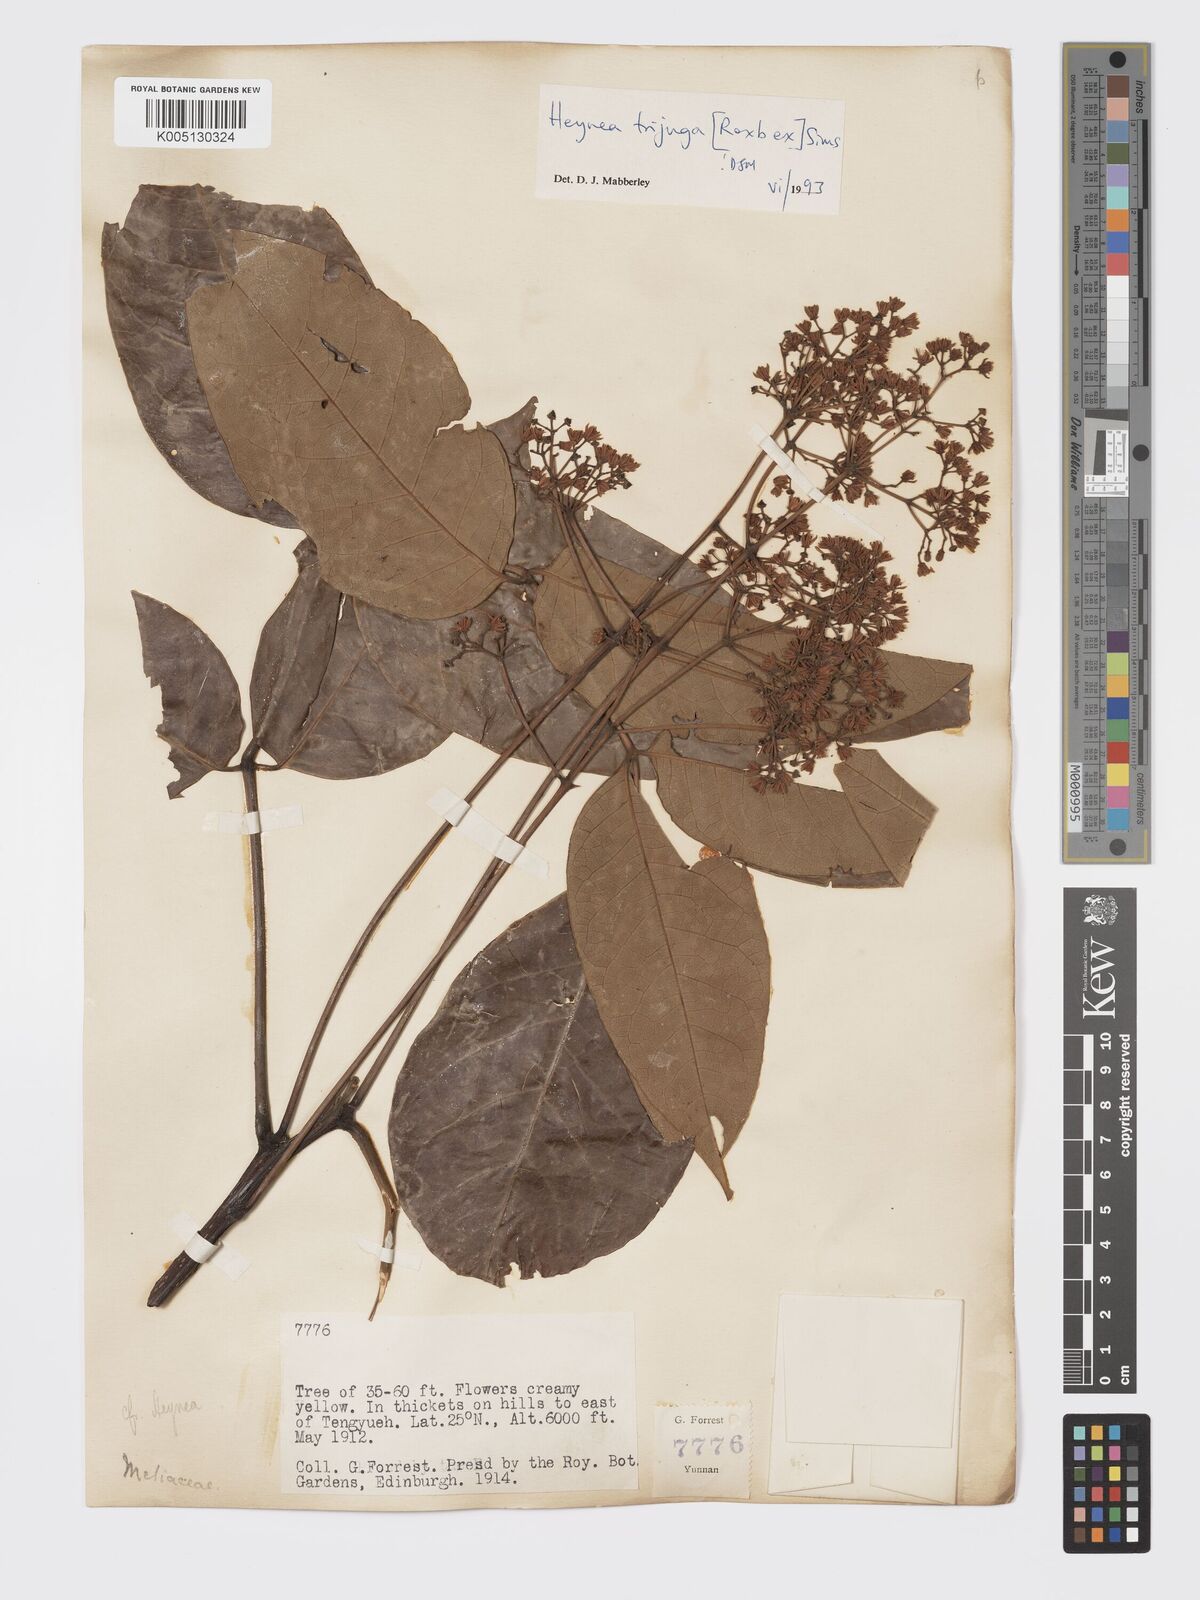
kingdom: Plantae
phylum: Tracheophyta
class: Magnoliopsida
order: Sapindales
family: Meliaceae
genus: Heynea
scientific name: Heynea trijuga
